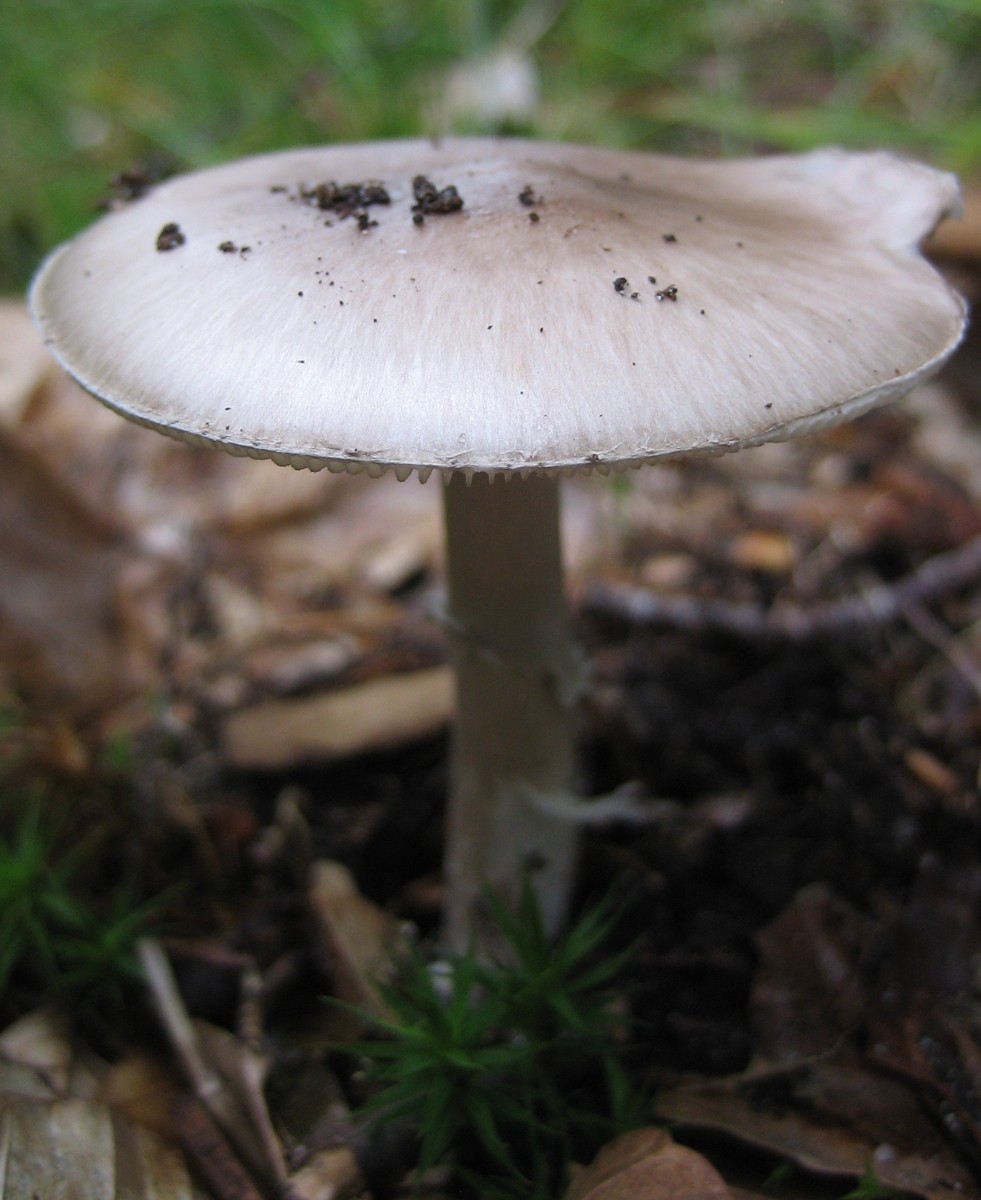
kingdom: Fungi
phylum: Basidiomycota
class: Agaricomycetes
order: Agaricales
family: Amanitaceae
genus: Amanita
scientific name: Amanita porphyria
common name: porfyr-fluesvamp
